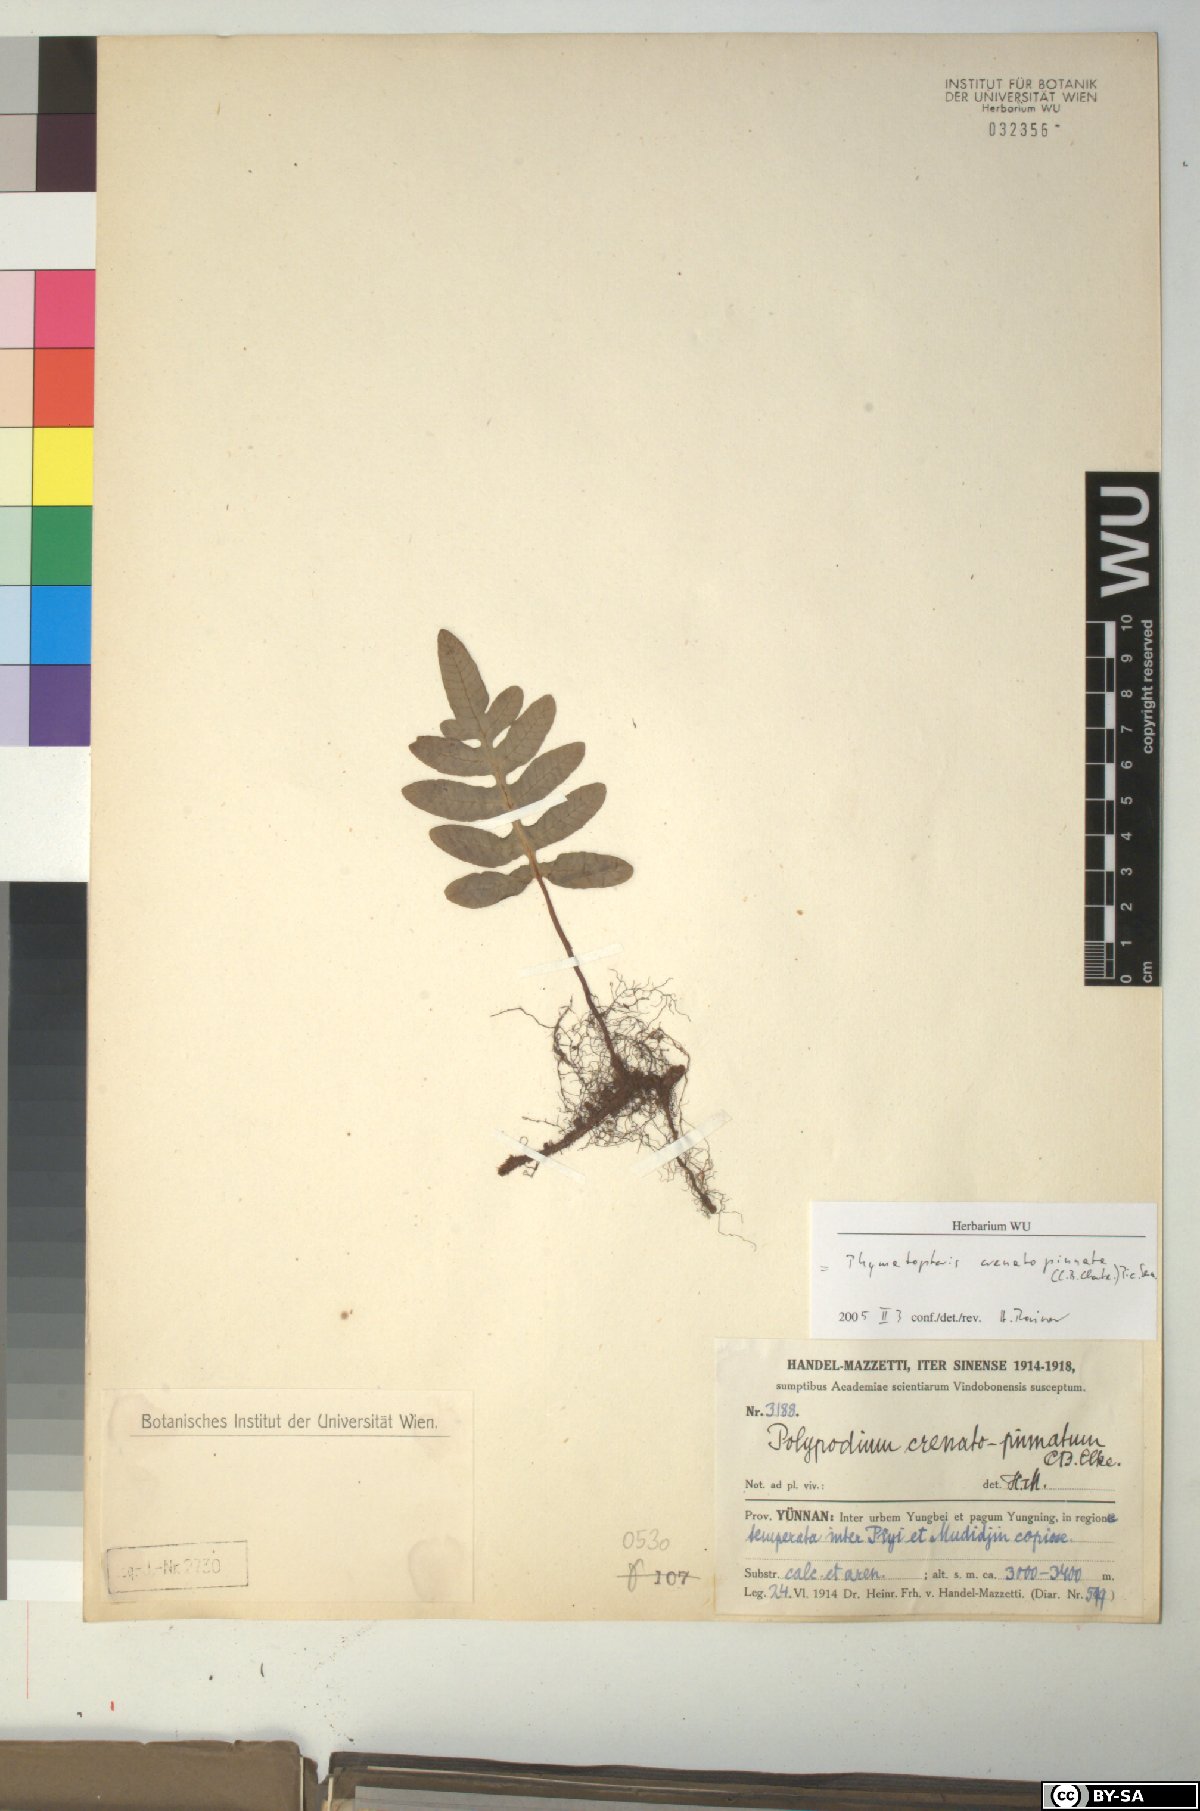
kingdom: Plantae
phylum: Tracheophyta
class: Polypodiopsida
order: Polypodiales
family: Polypodiaceae
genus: Selliguea
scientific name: Selliguea crenatopinnata
